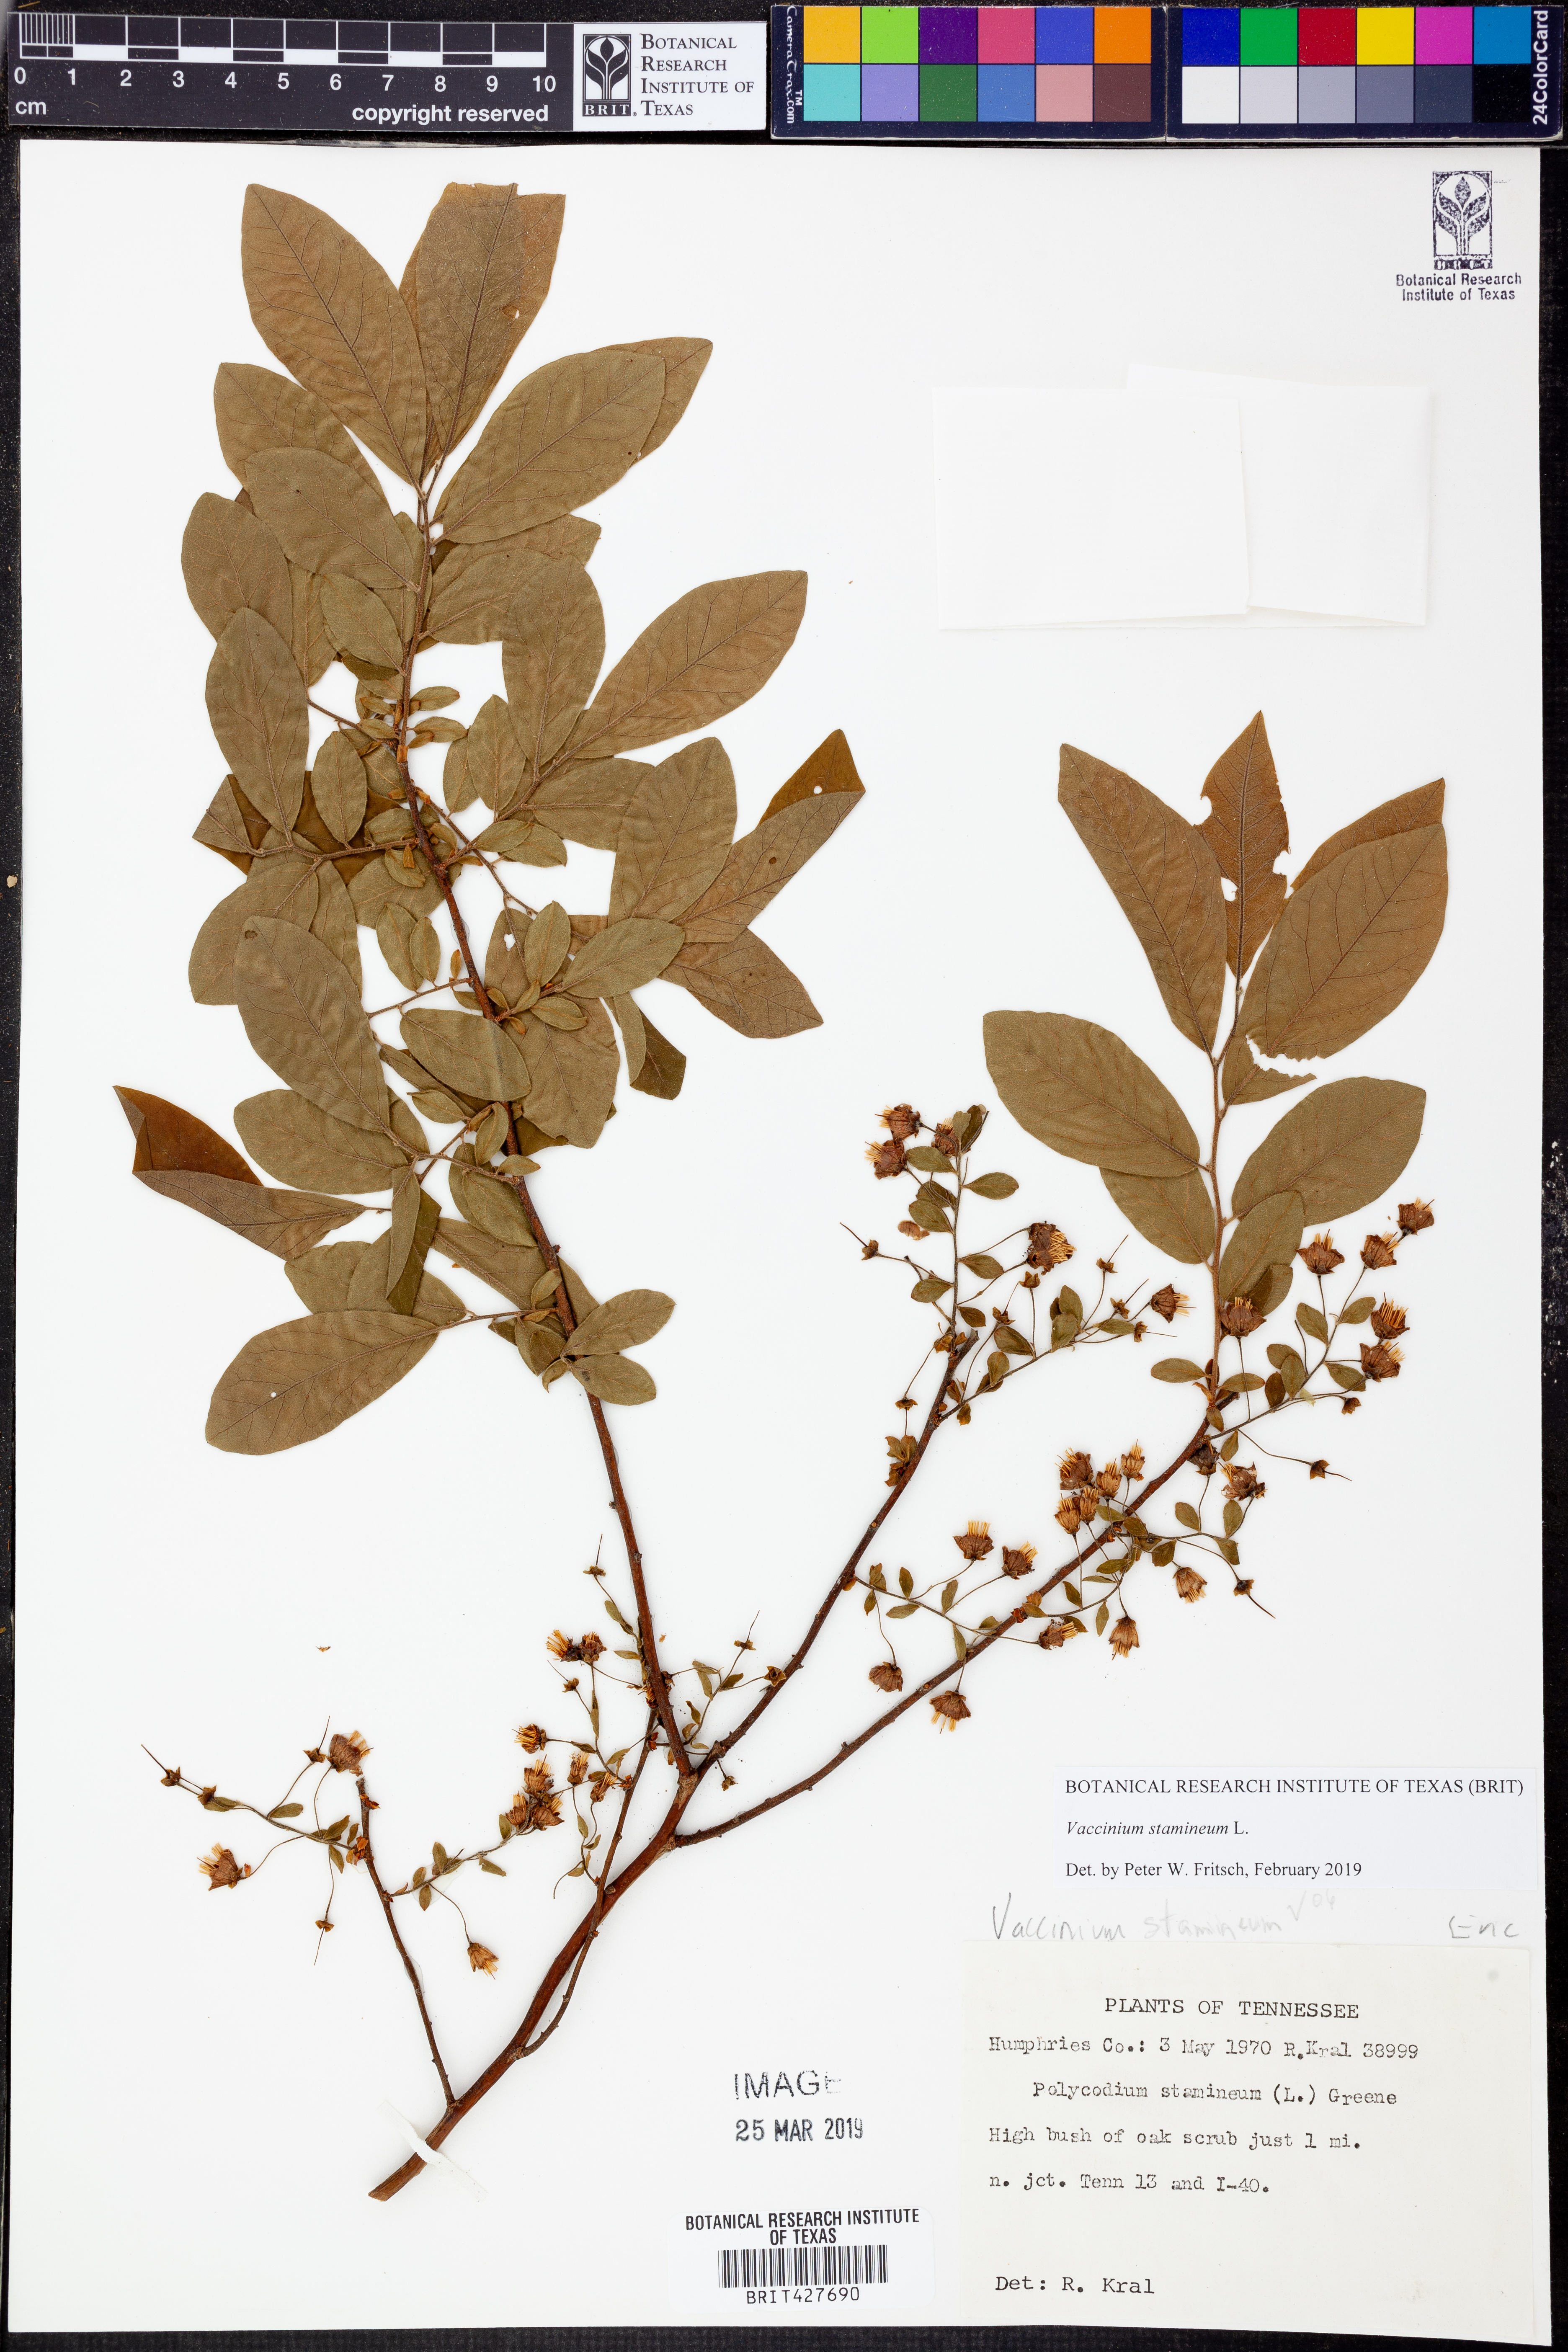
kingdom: Plantae
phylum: Tracheophyta
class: Magnoliopsida
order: Ericales
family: Ericaceae
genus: Vaccinium
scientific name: Vaccinium stamineum
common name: Deerberry
